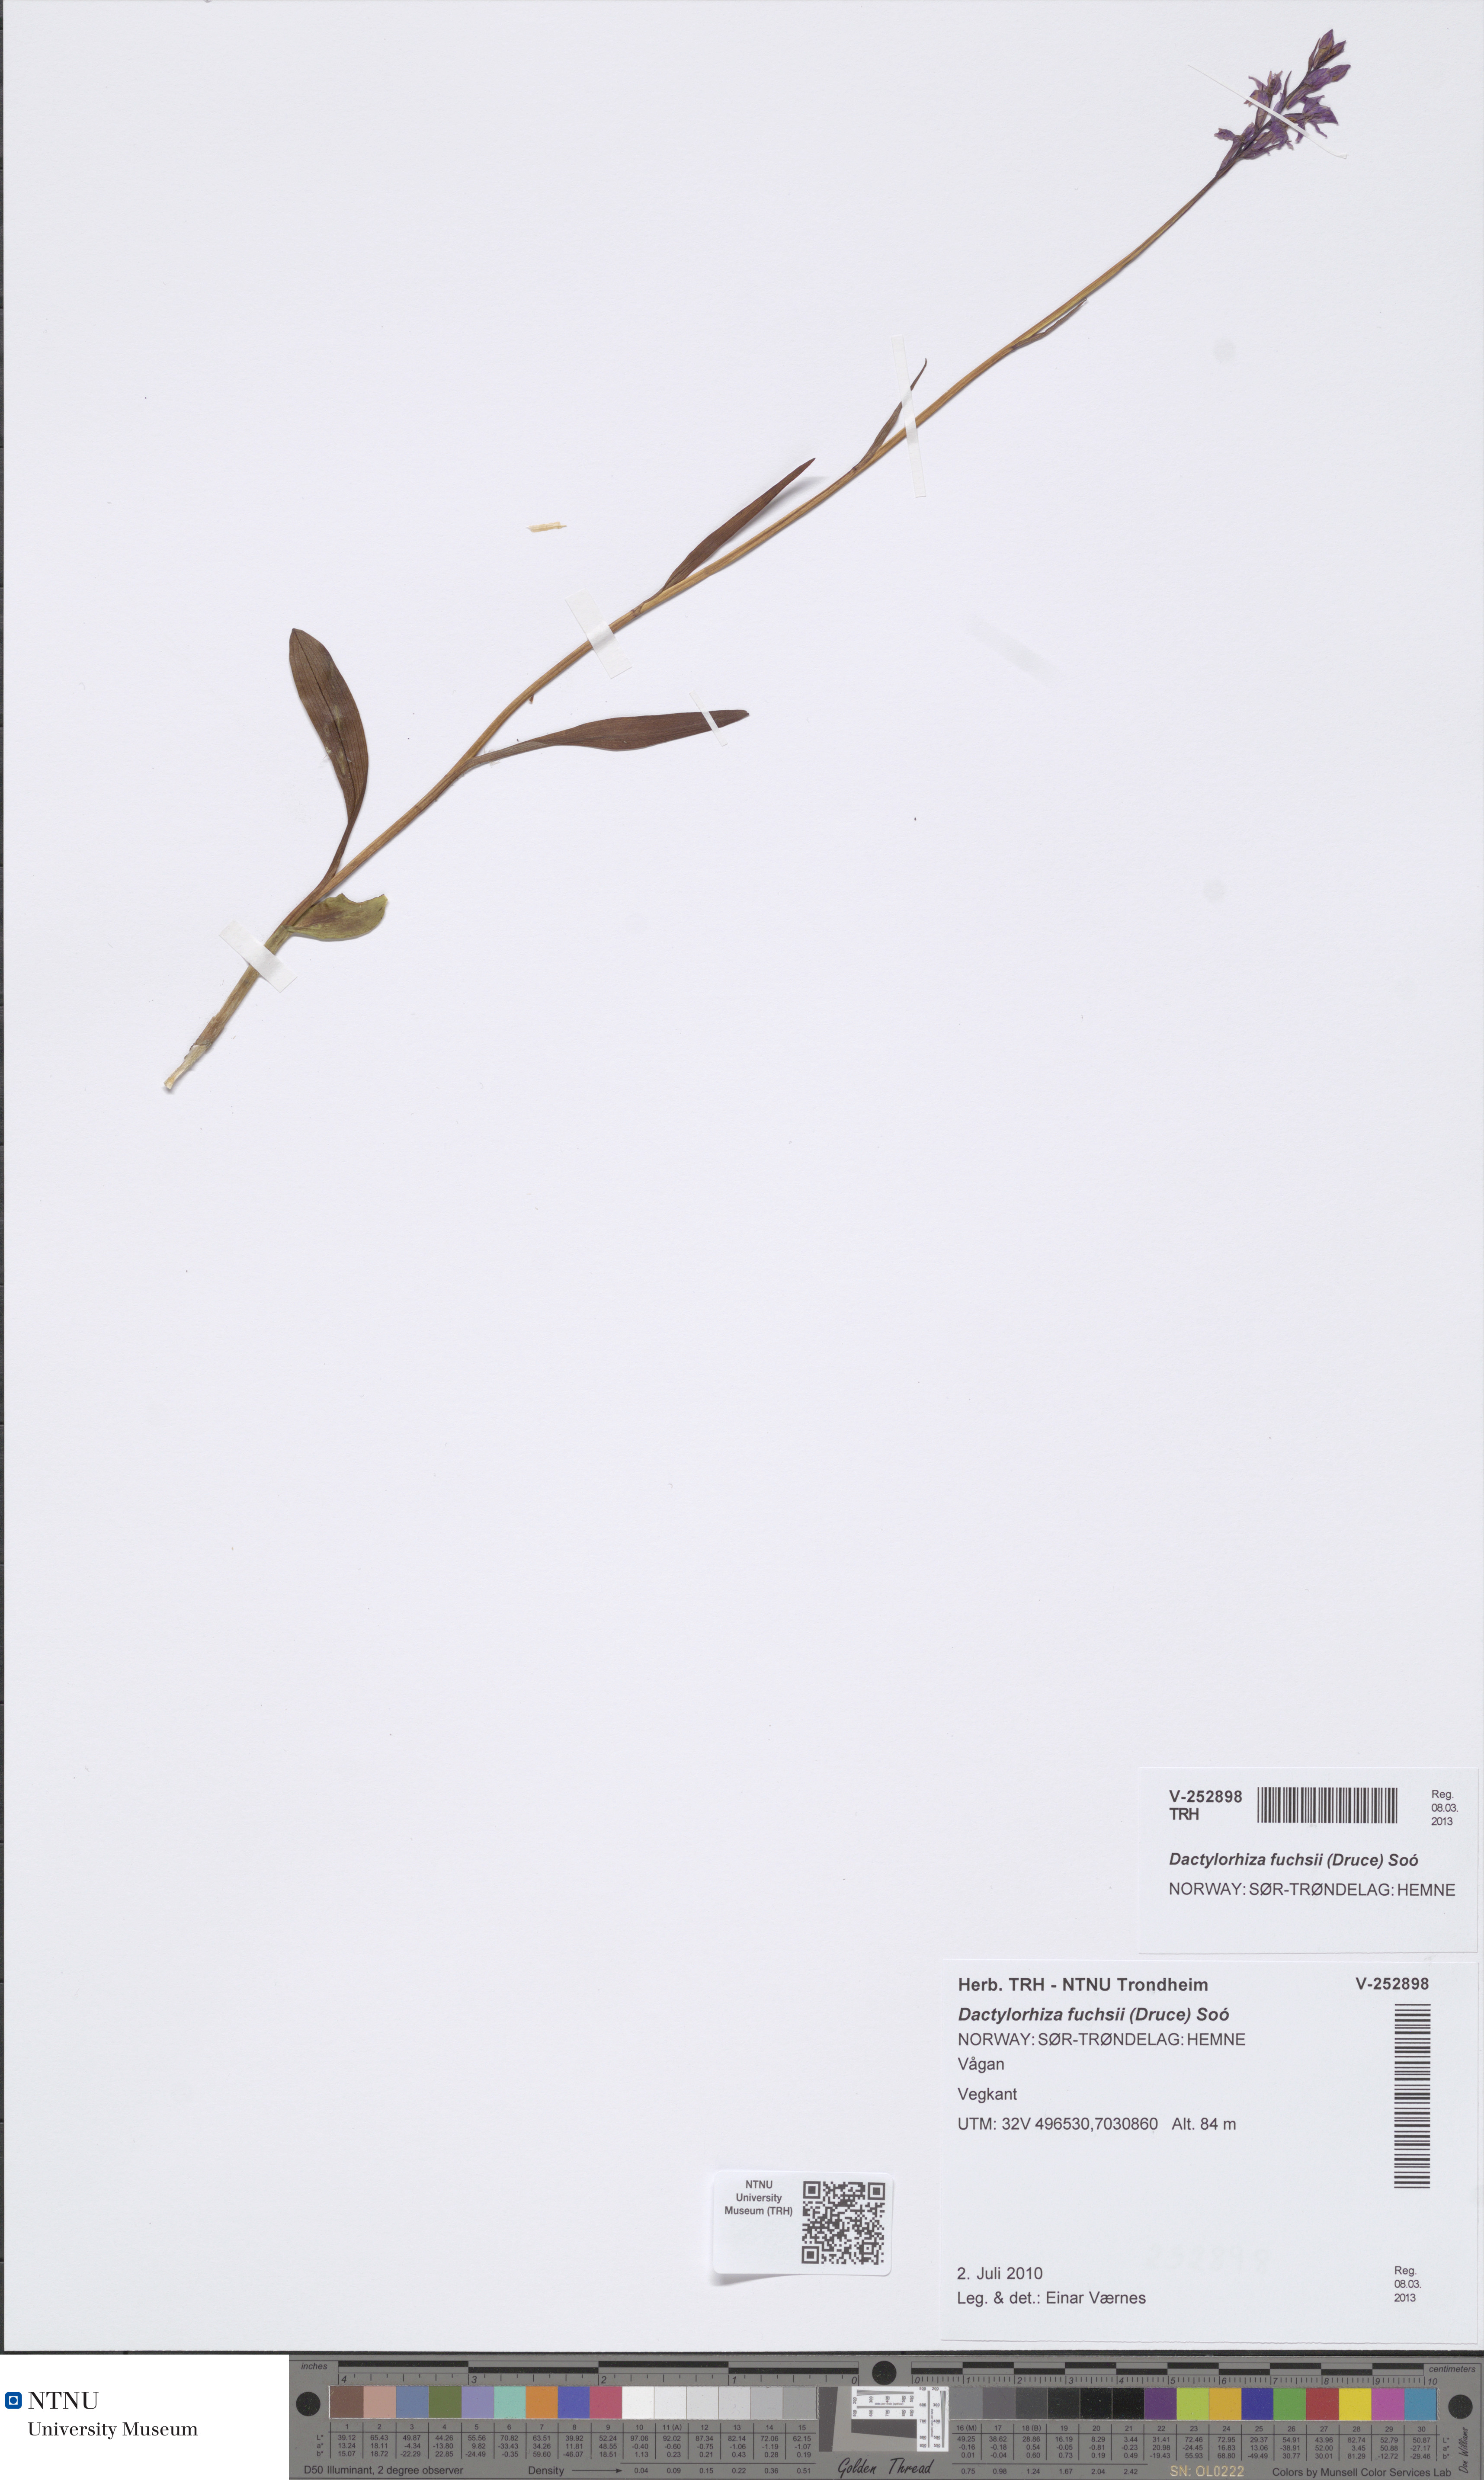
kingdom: Plantae
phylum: Tracheophyta
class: Liliopsida
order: Asparagales
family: Orchidaceae
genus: Dactylorhiza
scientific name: Dactylorhiza maculata
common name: Heath spotted-orchid
